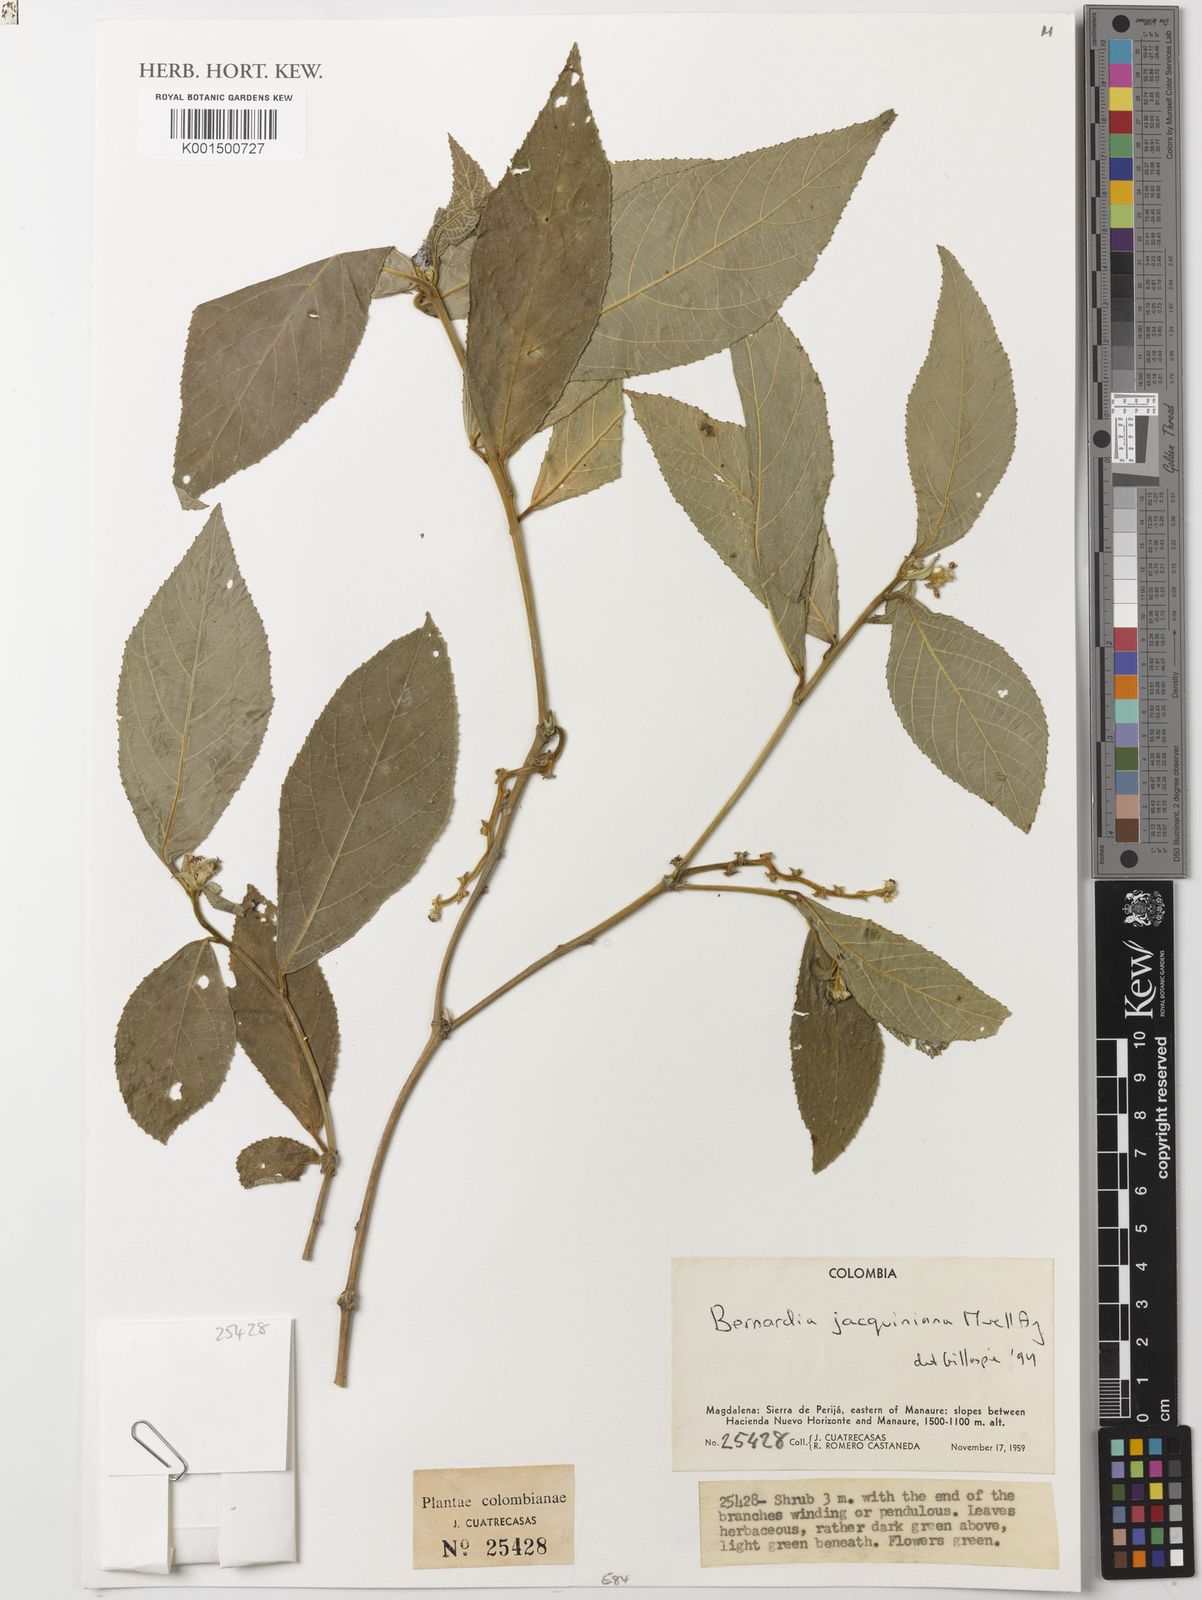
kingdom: Plantae
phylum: Tracheophyta
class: Magnoliopsida
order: Malpighiales
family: Euphorbiaceae
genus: Bernardia
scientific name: Bernardia jacquiniana
